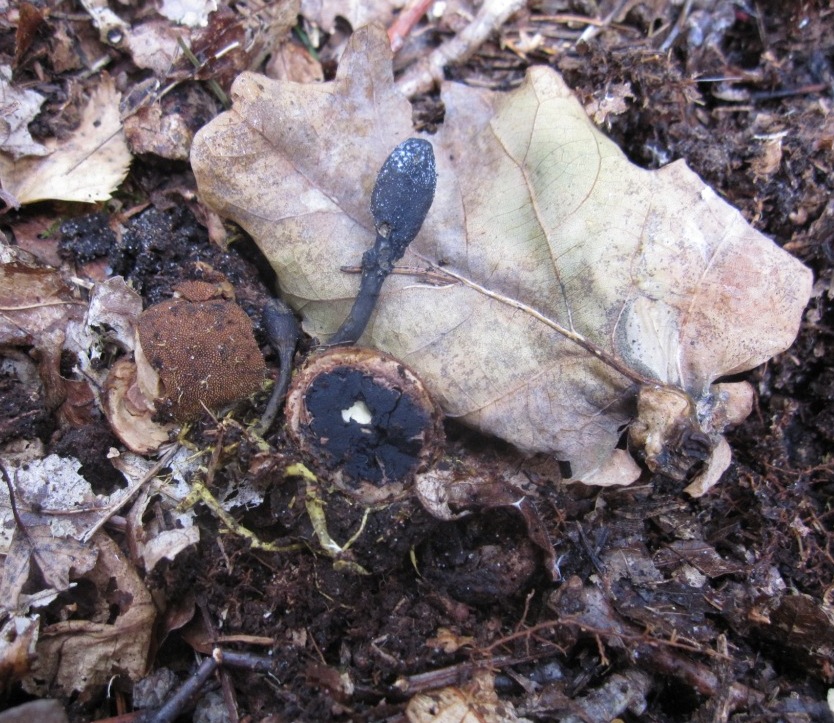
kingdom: Fungi
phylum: Ascomycota
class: Sordariomycetes
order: Hypocreales
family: Ophiocordycipitaceae
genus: Tolypocladium
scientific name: Tolypocladium ophioglossoides
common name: slank snyltekølle
